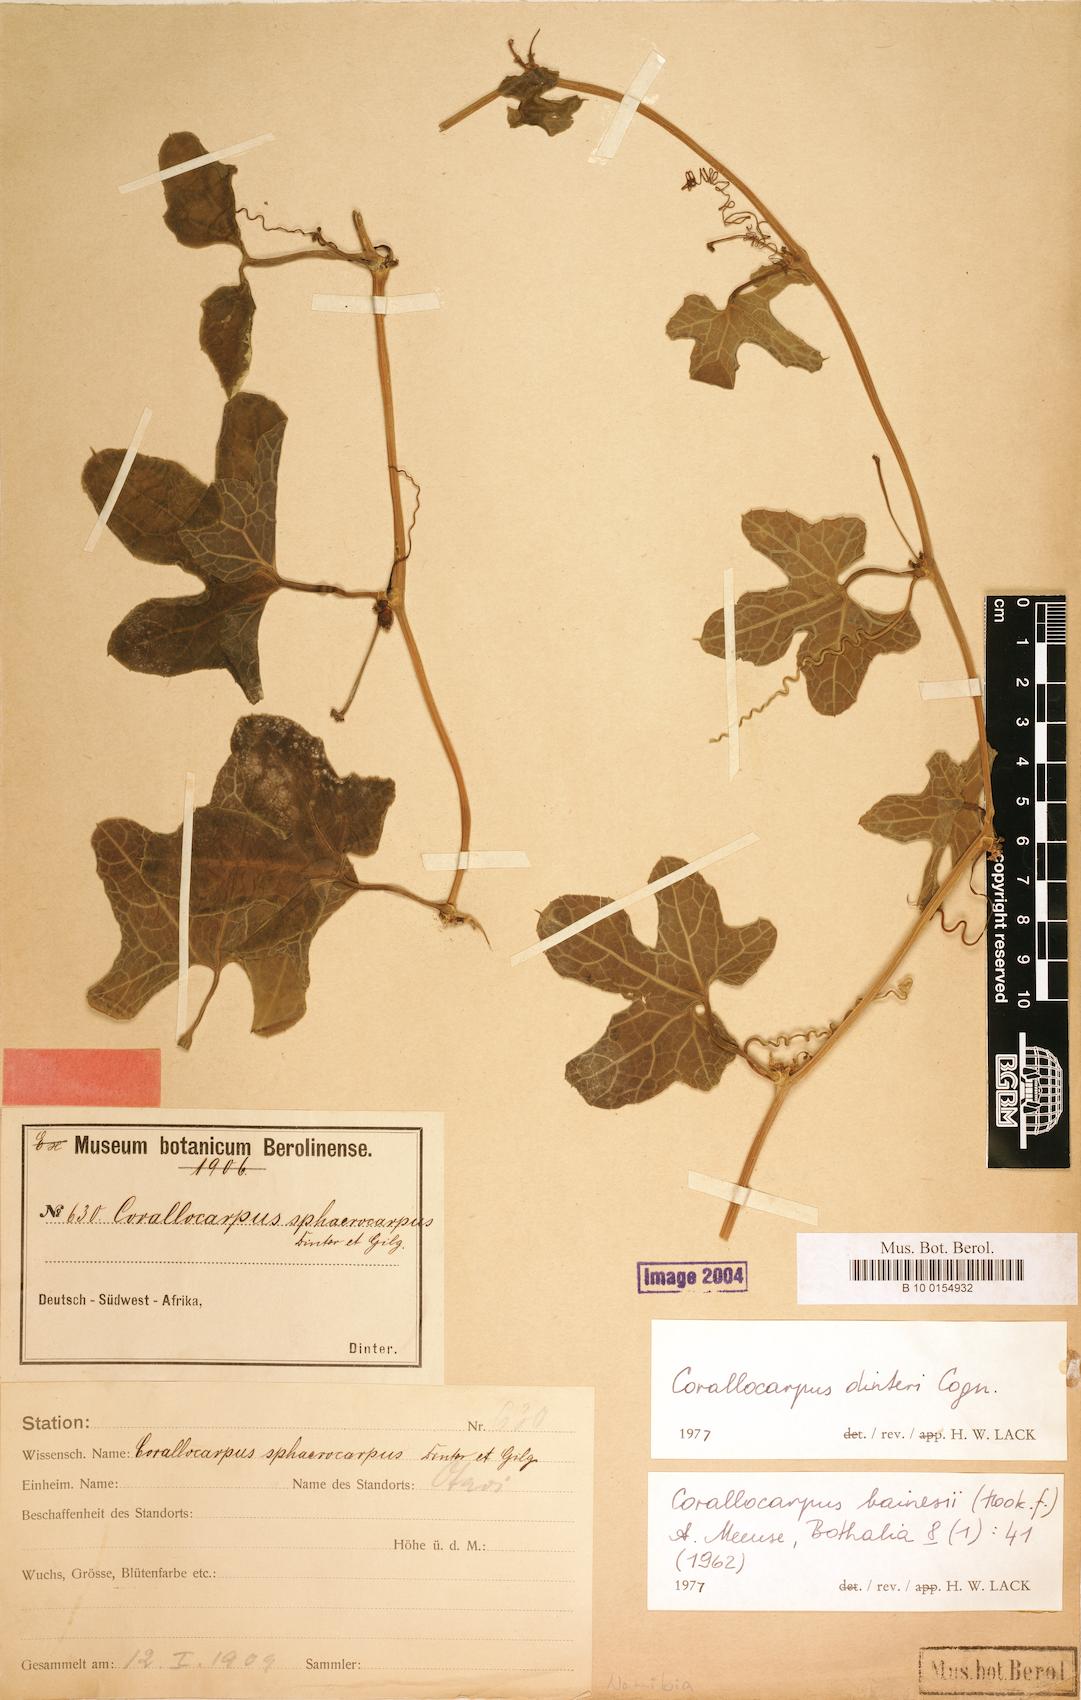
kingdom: Plantae
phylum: Tracheophyta
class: Magnoliopsida
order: Cucurbitales
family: Cucurbitaceae
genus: Corallocarpus
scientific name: Corallocarpus bainesii
